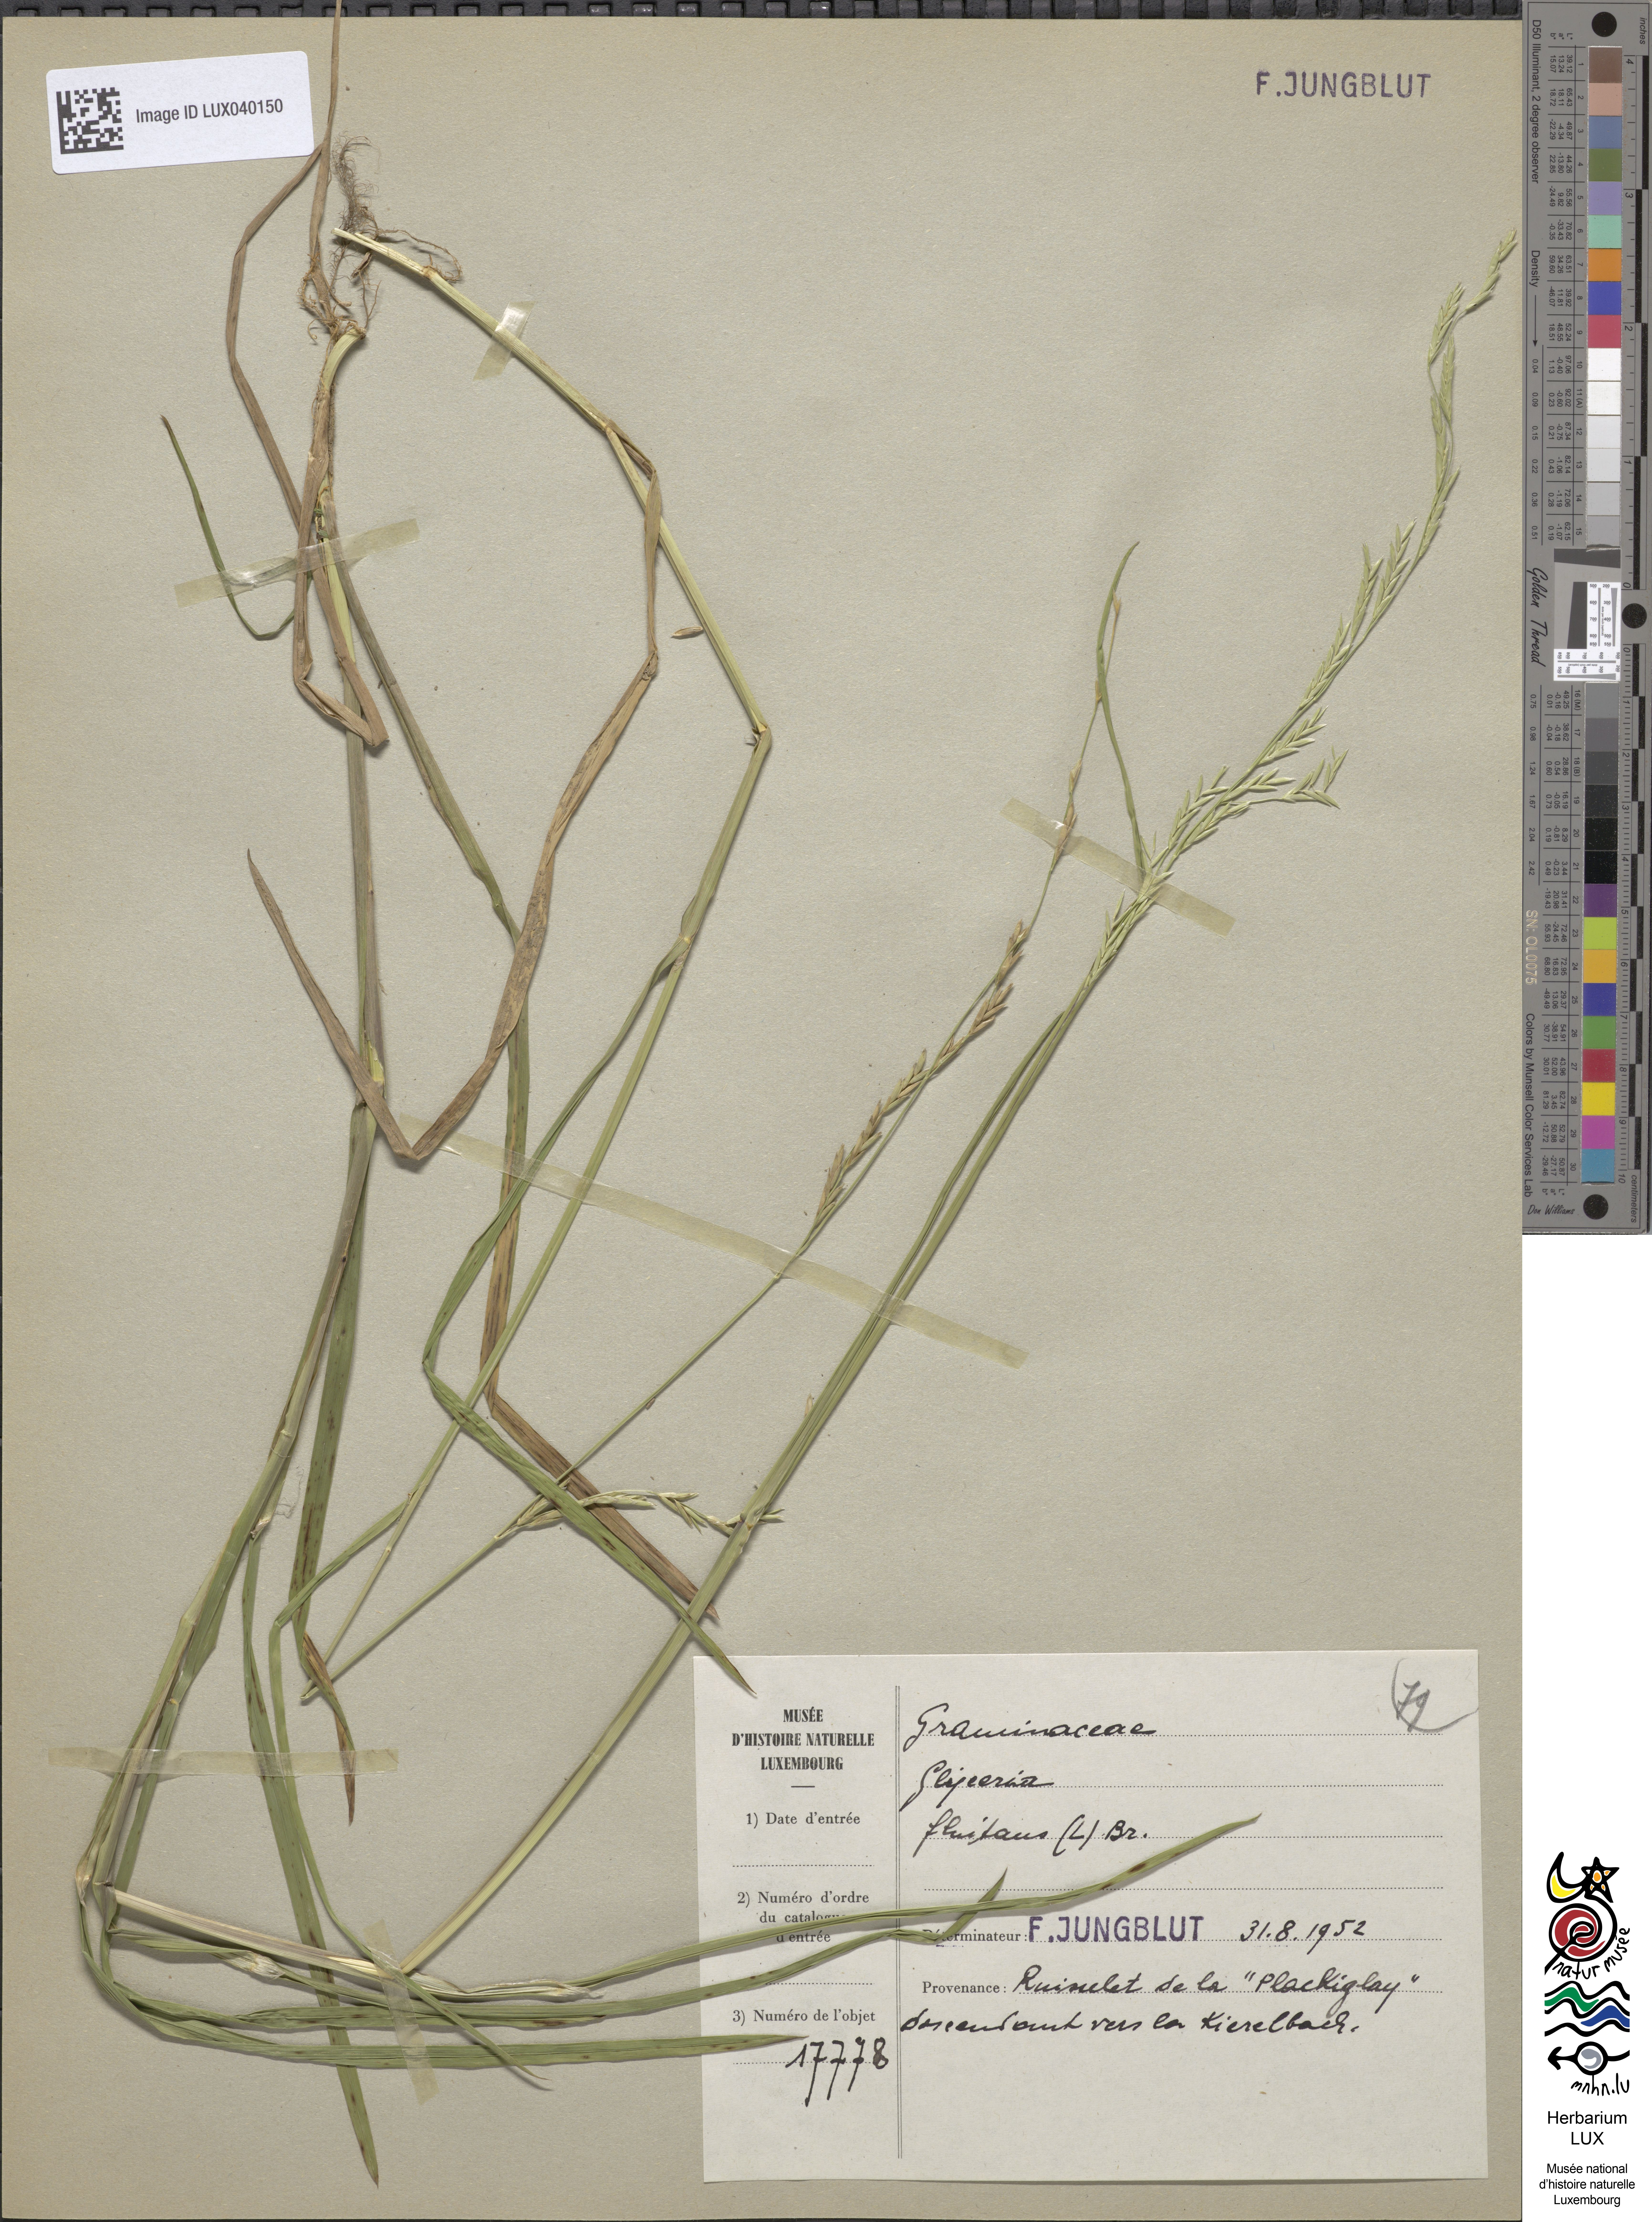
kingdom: Plantae
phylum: Tracheophyta
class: Liliopsida
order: Poales
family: Poaceae
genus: Glyceria
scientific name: Glyceria fluitans
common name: Floating sweet-grass
